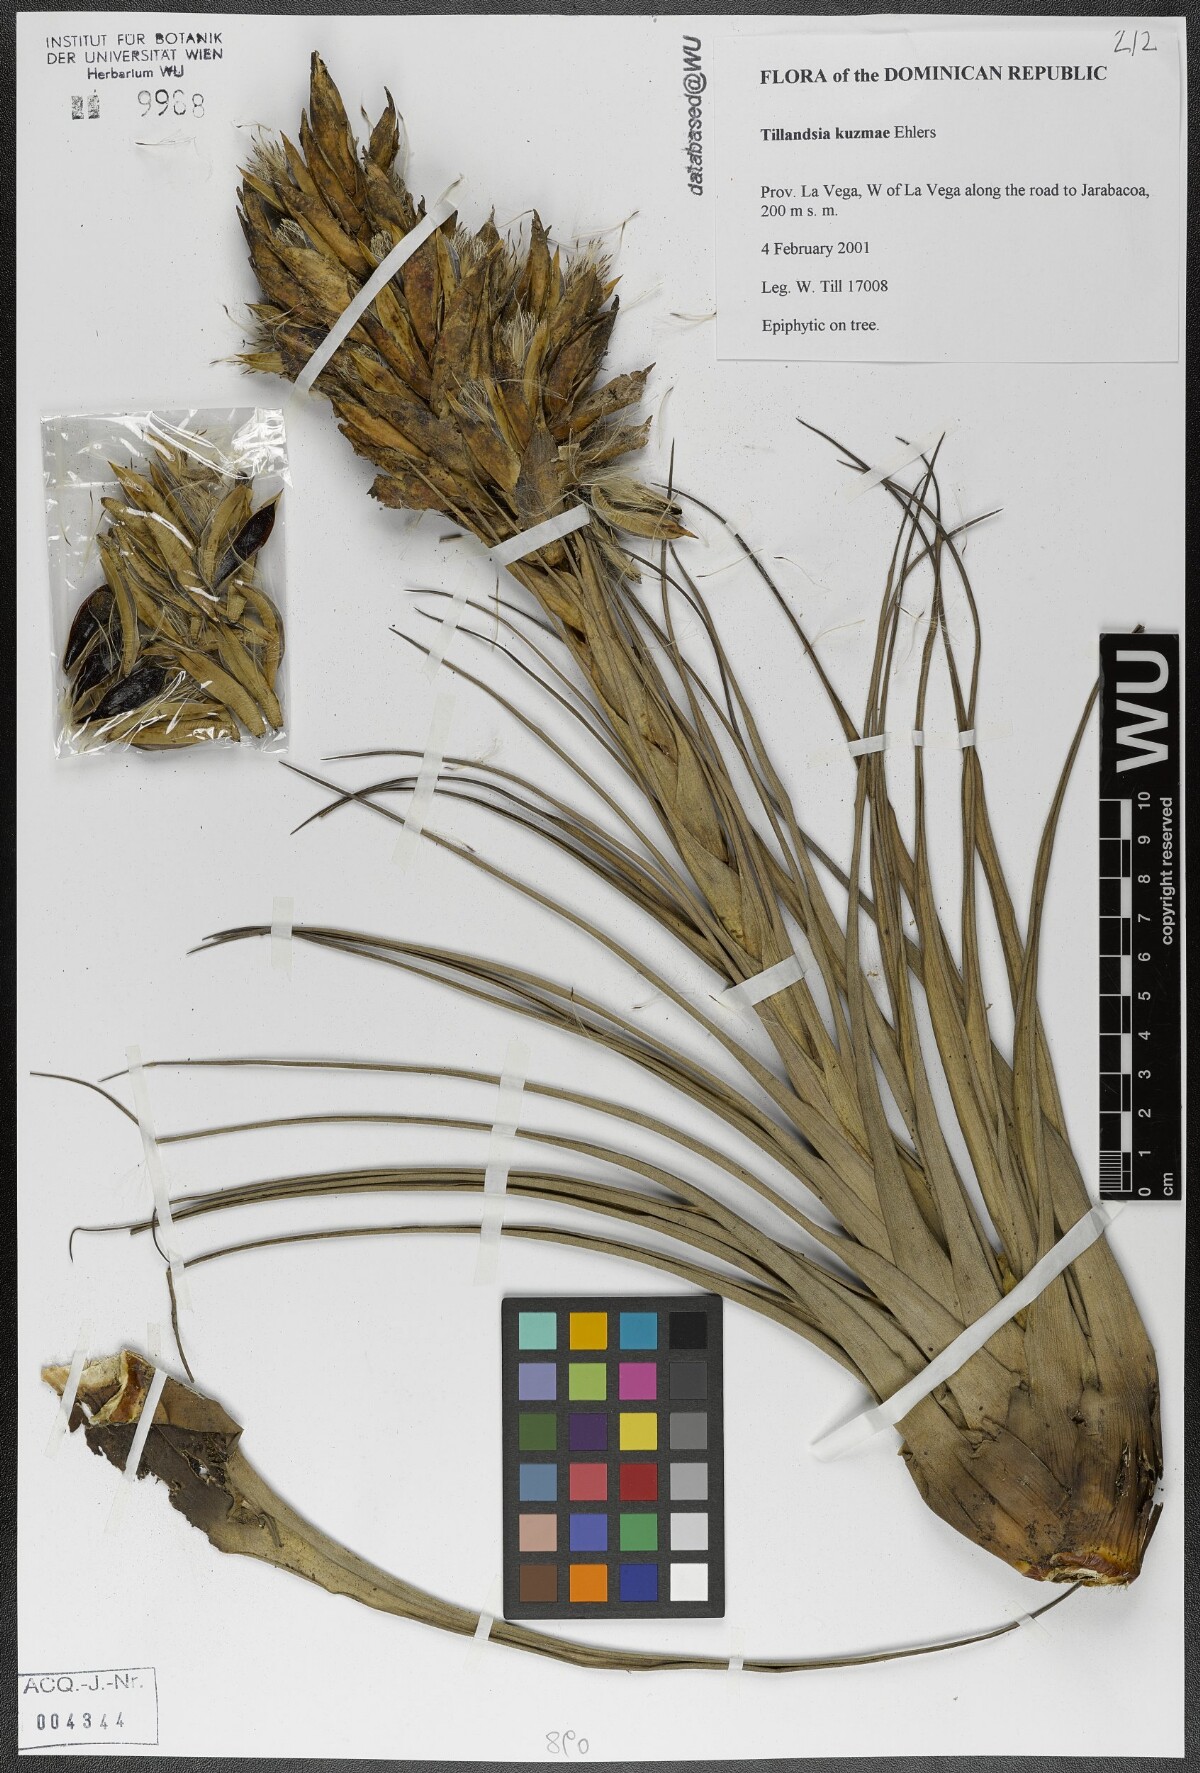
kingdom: Plantae
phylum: Tracheophyta
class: Liliopsida
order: Poales
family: Bromeliaceae
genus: Tillandsia
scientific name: Tillandsia kuzmae
